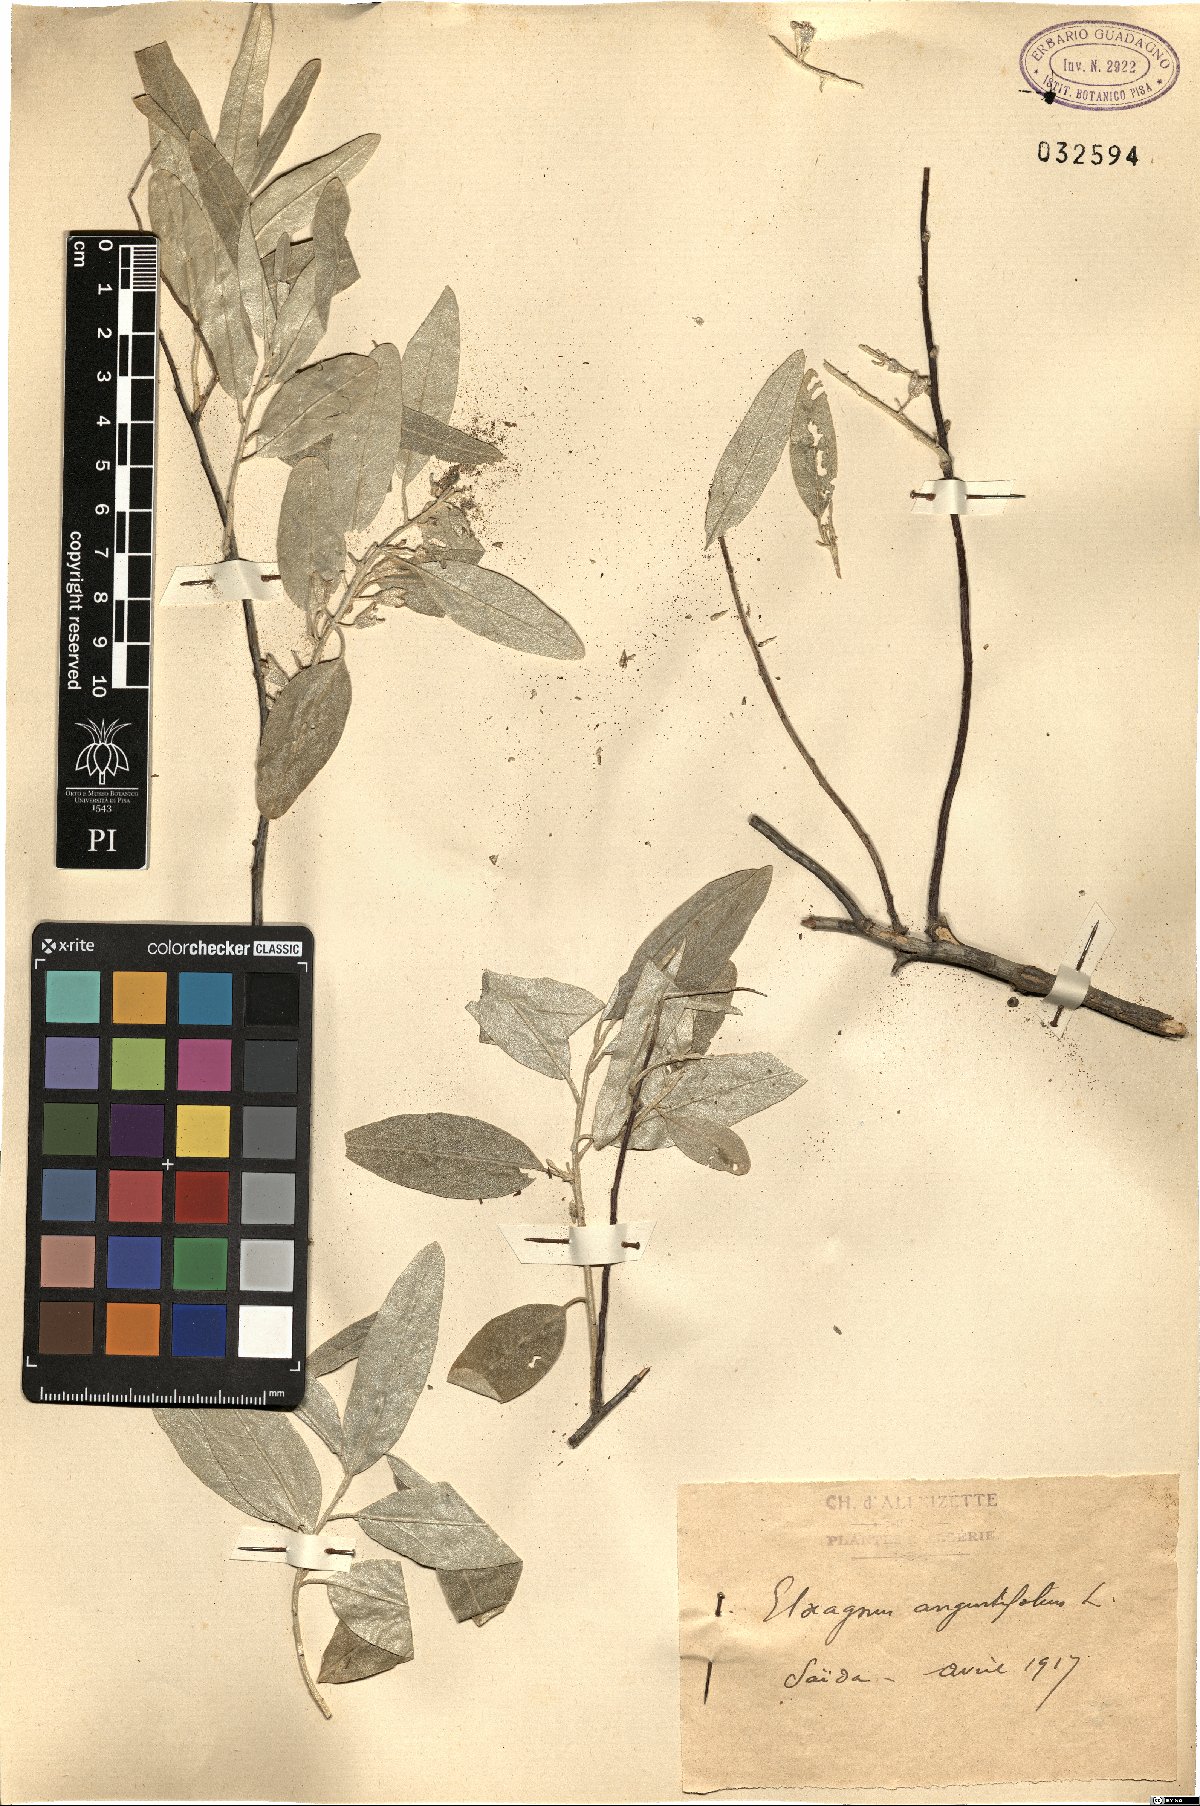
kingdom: Plantae
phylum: Tracheophyta
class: Magnoliopsida
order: Rosales
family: Elaeagnaceae
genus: Elaeagnus
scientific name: Elaeagnus angustifolia
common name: Russian olive
